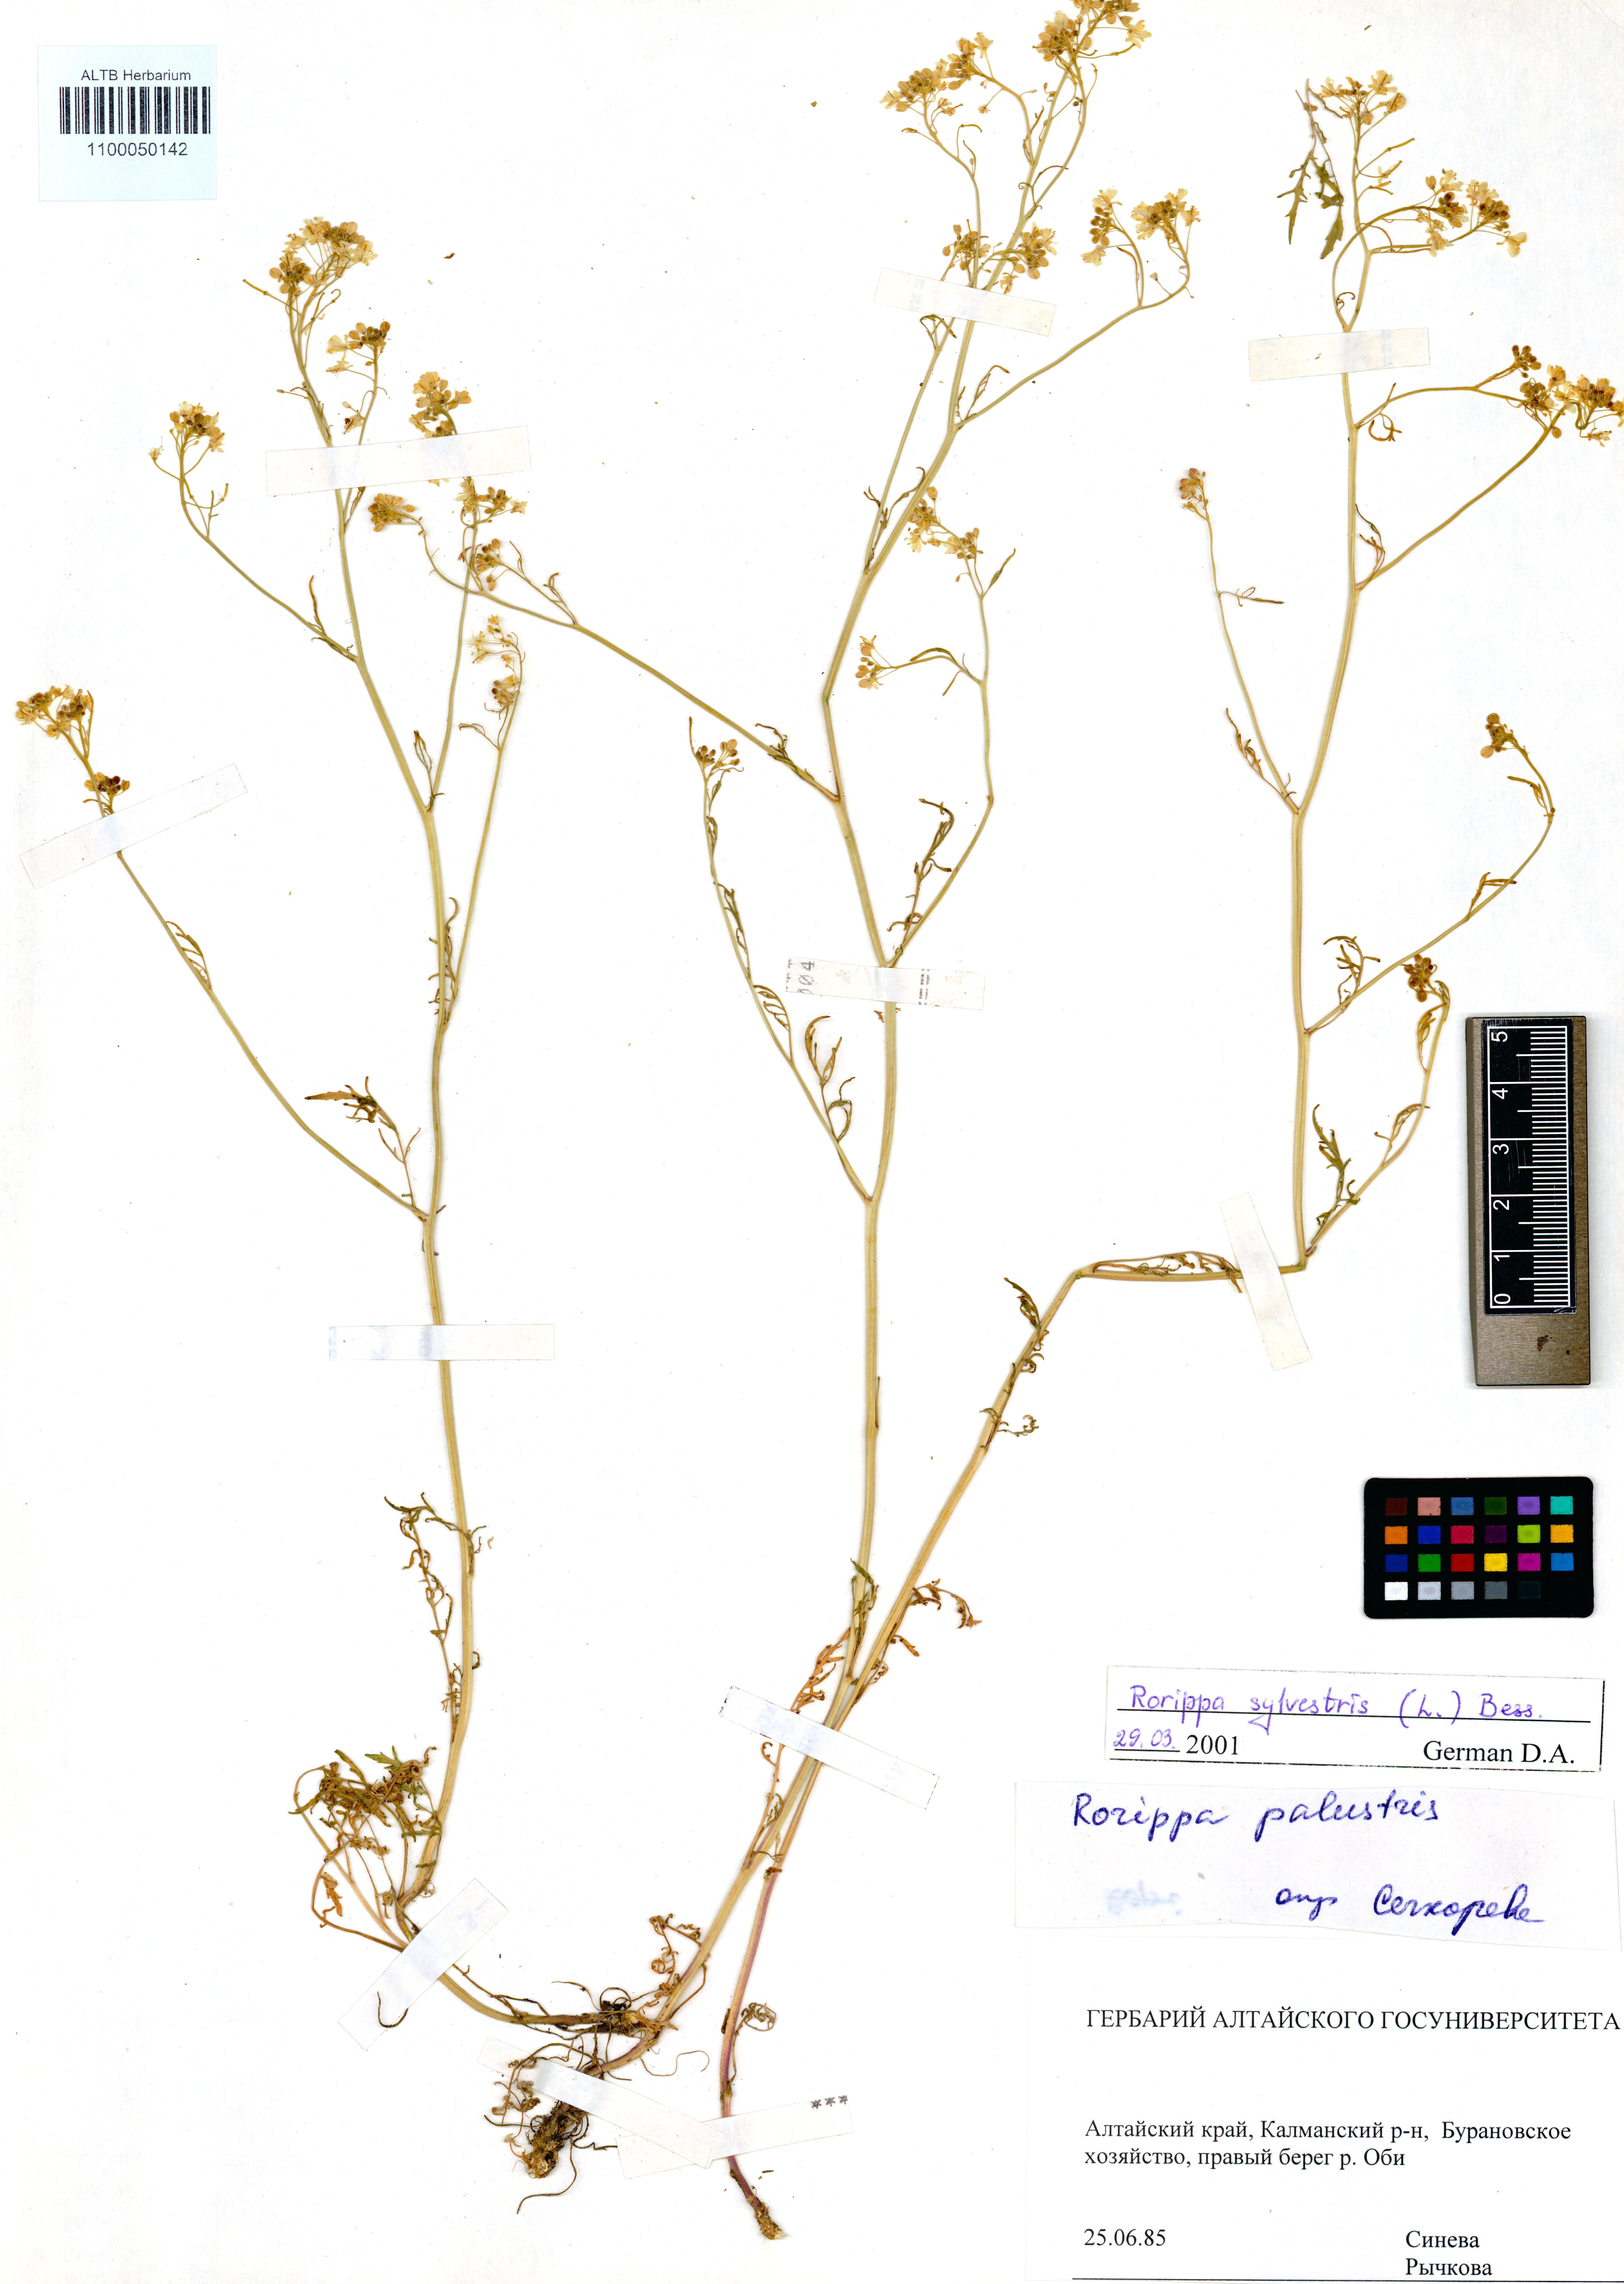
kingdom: Plantae
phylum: Tracheophyta
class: Magnoliopsida
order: Brassicales
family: Brassicaceae
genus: Rorippa
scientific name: Rorippa sylvestris
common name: Creeping yellowcress
